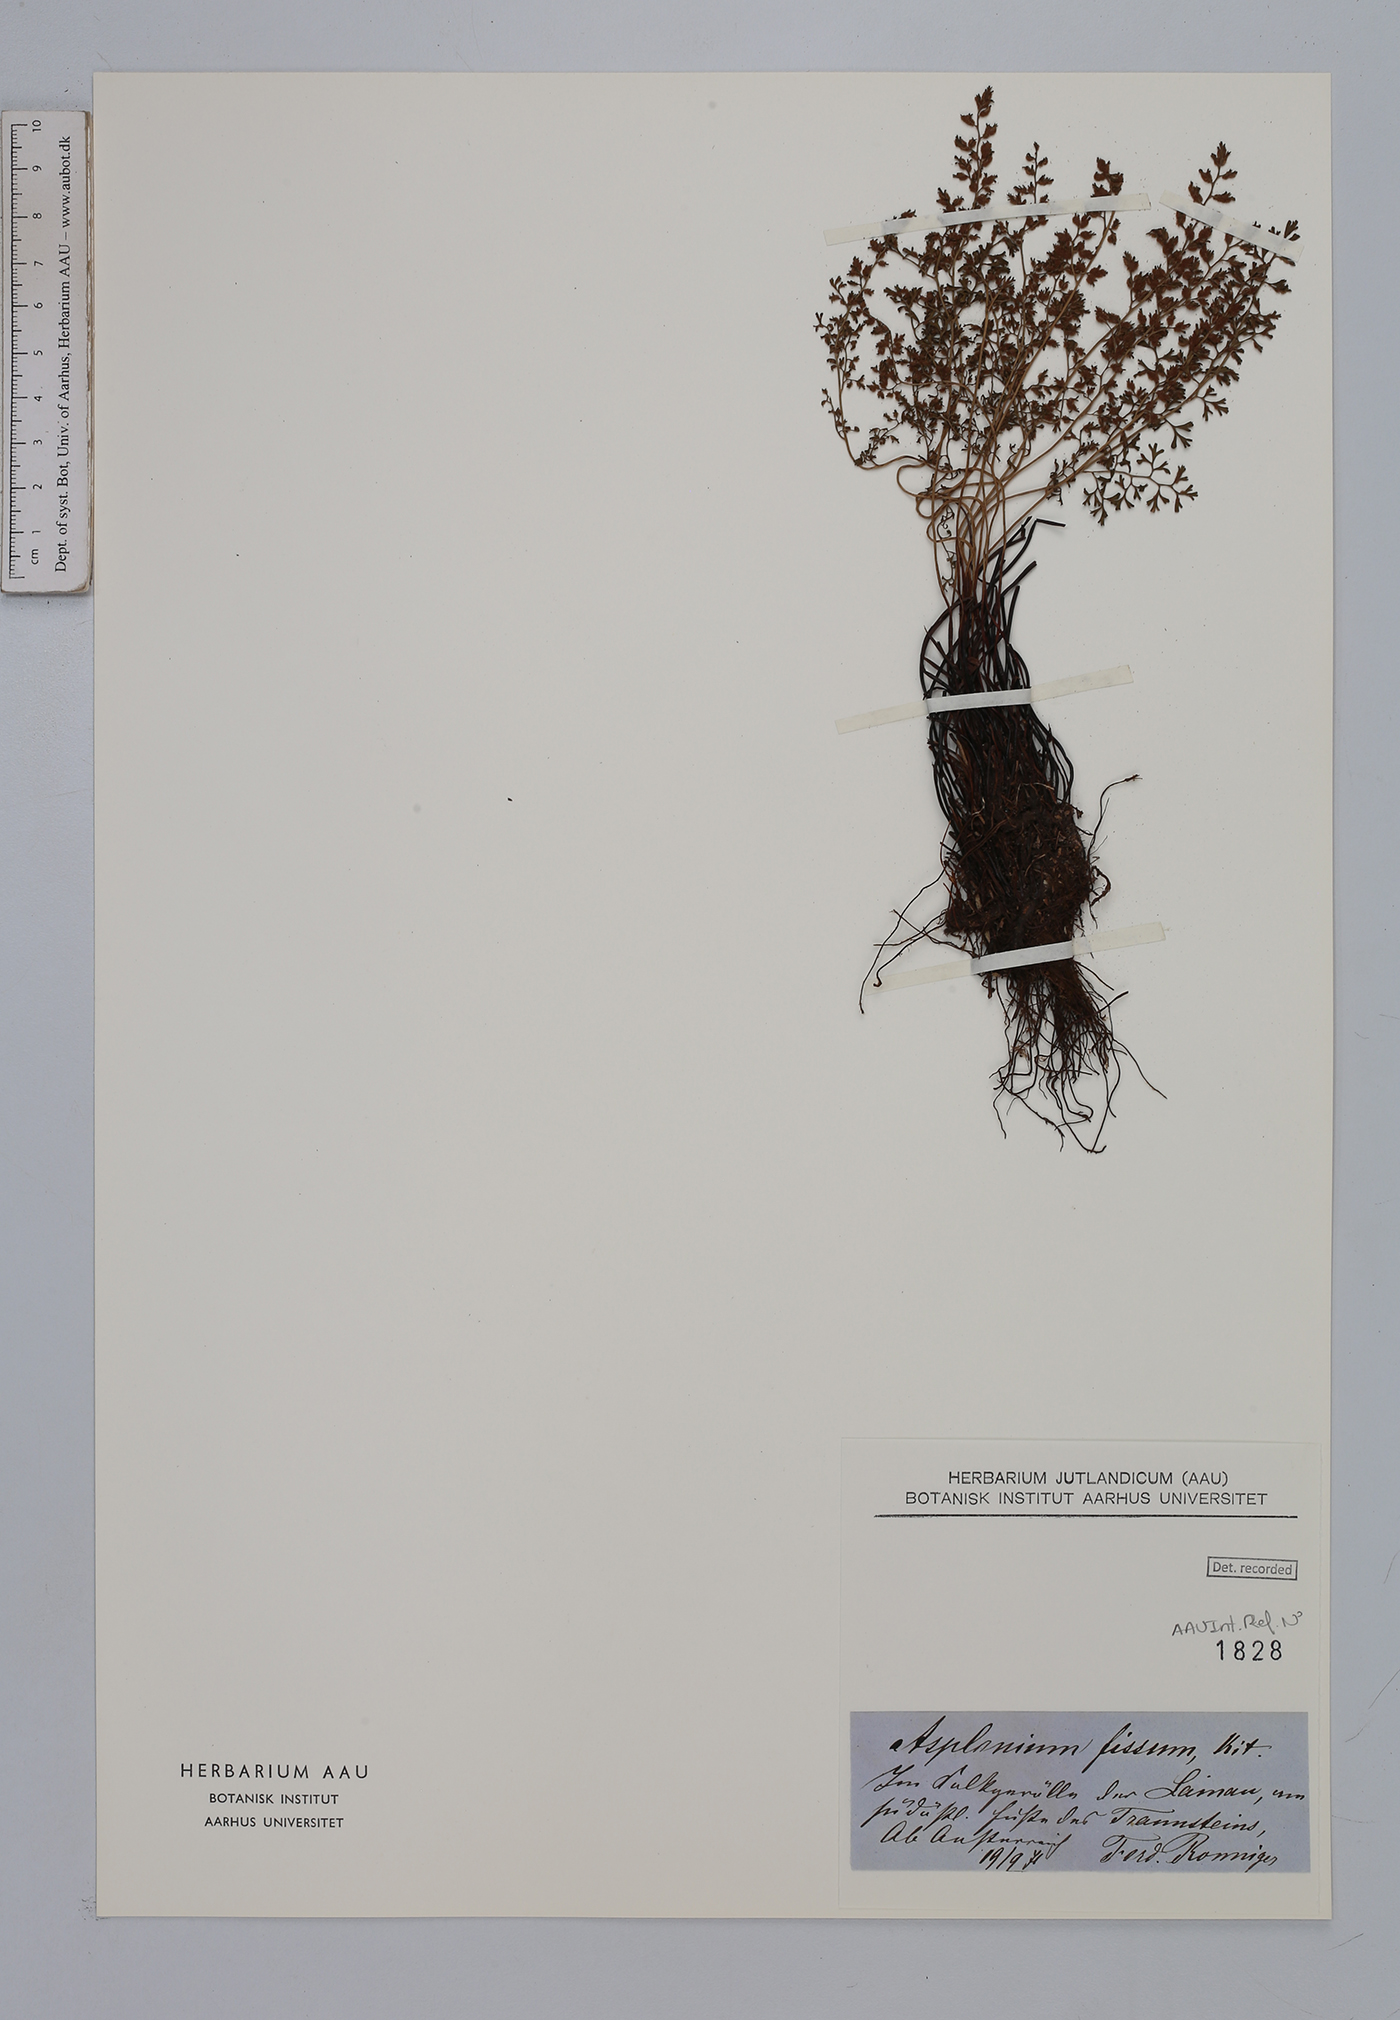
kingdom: Plantae
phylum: Tracheophyta
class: Polypodiopsida
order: Polypodiales
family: Aspleniaceae
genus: Asplenium
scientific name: Asplenium fissum
